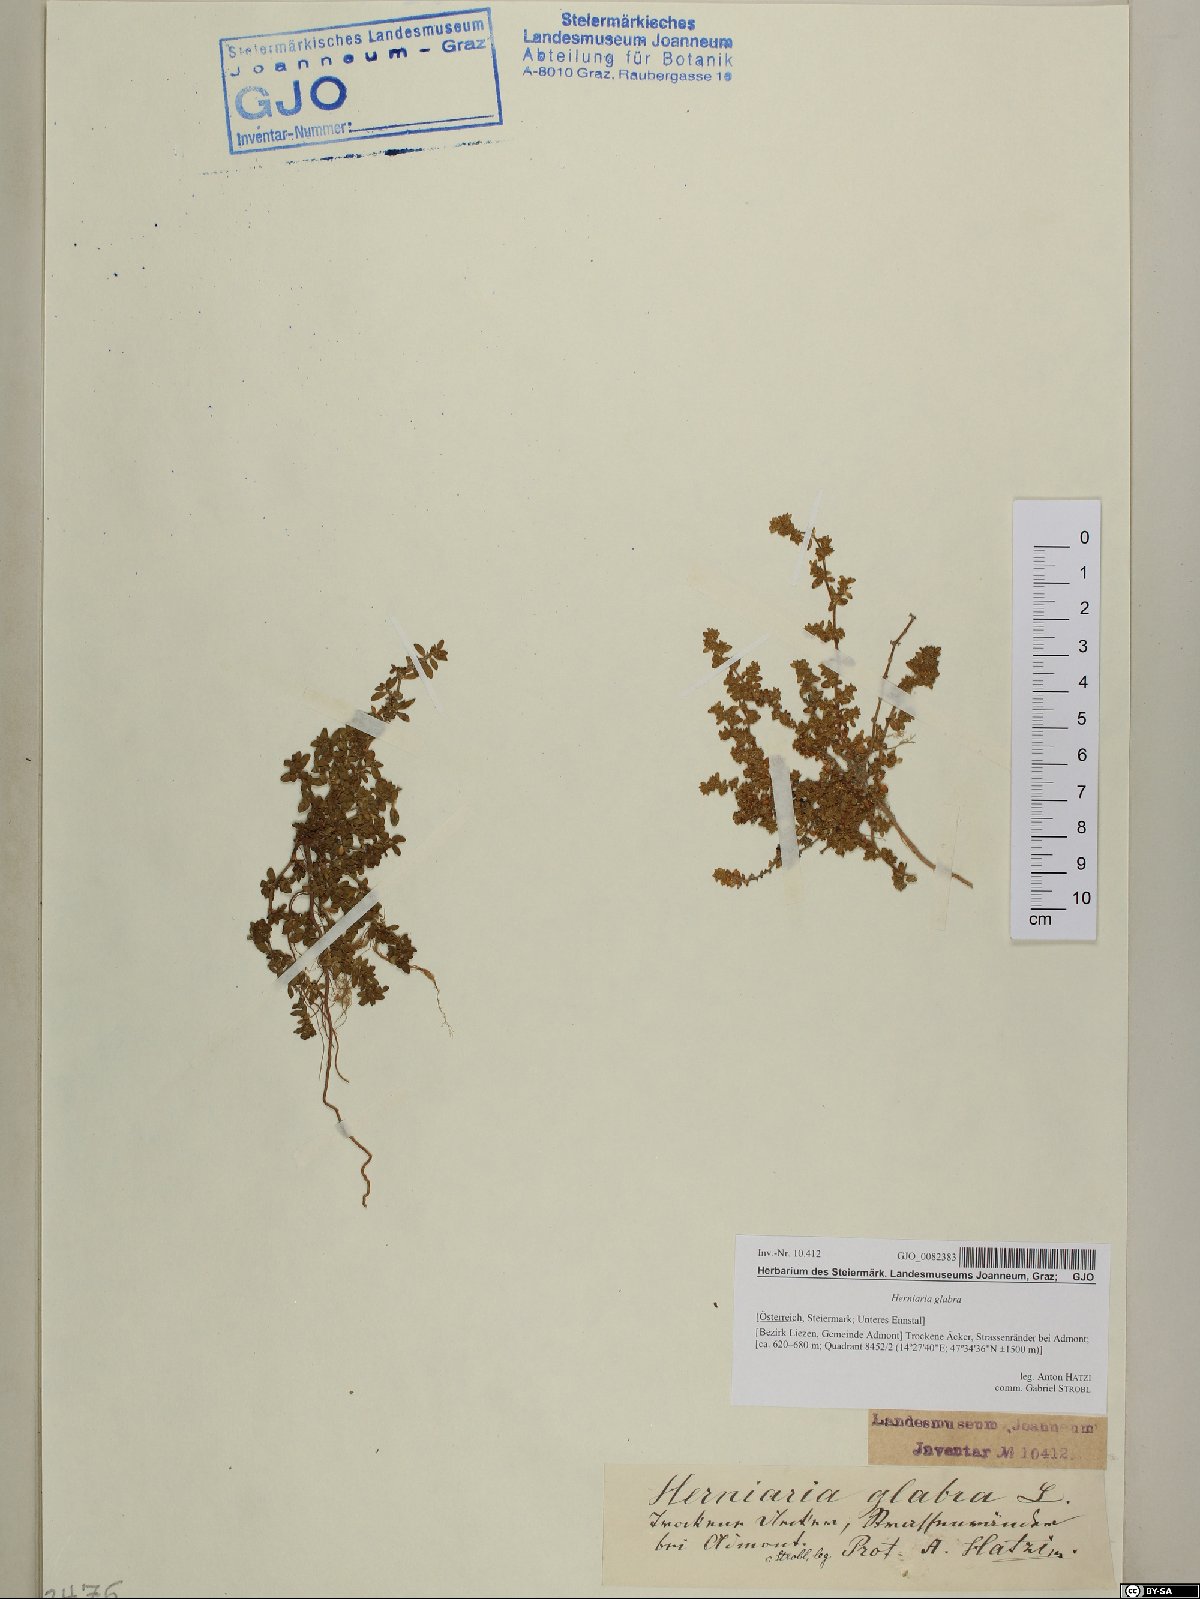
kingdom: Plantae
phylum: Tracheophyta
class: Magnoliopsida
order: Caryophyllales
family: Caryophyllaceae
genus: Herniaria
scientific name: Herniaria glabra
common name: Smooth rupturewort
